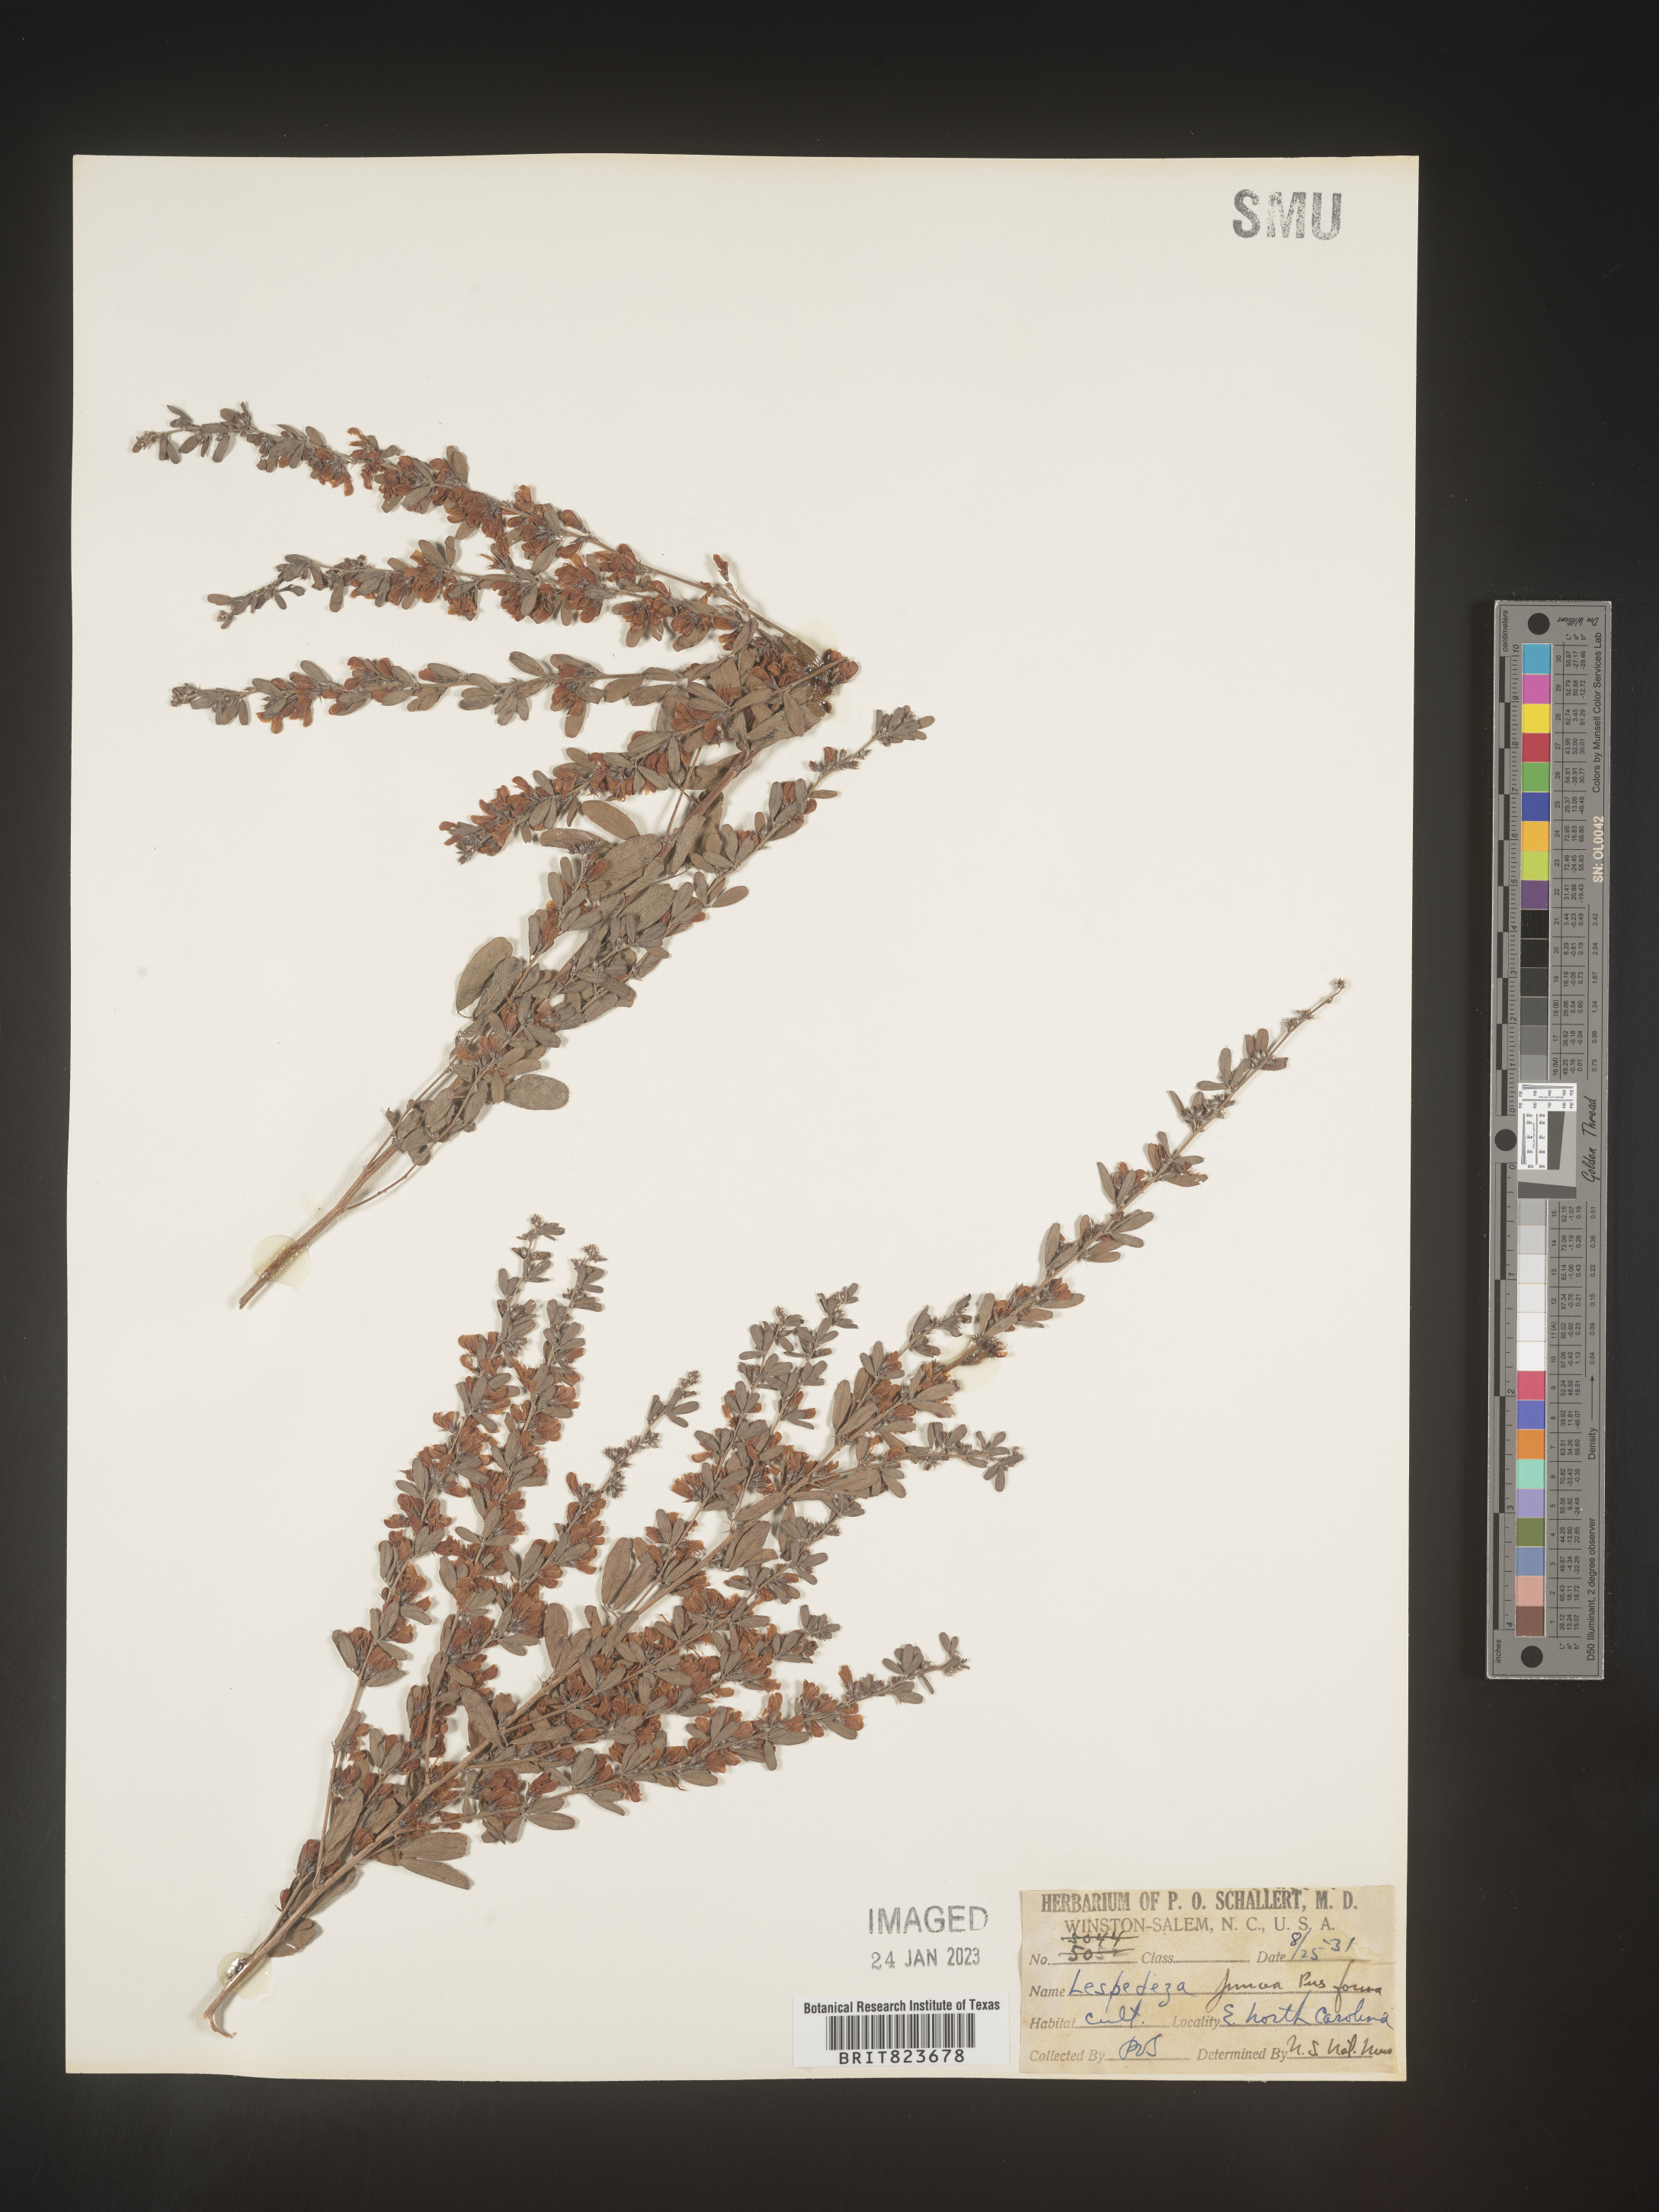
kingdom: Plantae
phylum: Tracheophyta
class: Magnoliopsida
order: Fabales
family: Fabaceae
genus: Lespedeza
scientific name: Lespedeza
